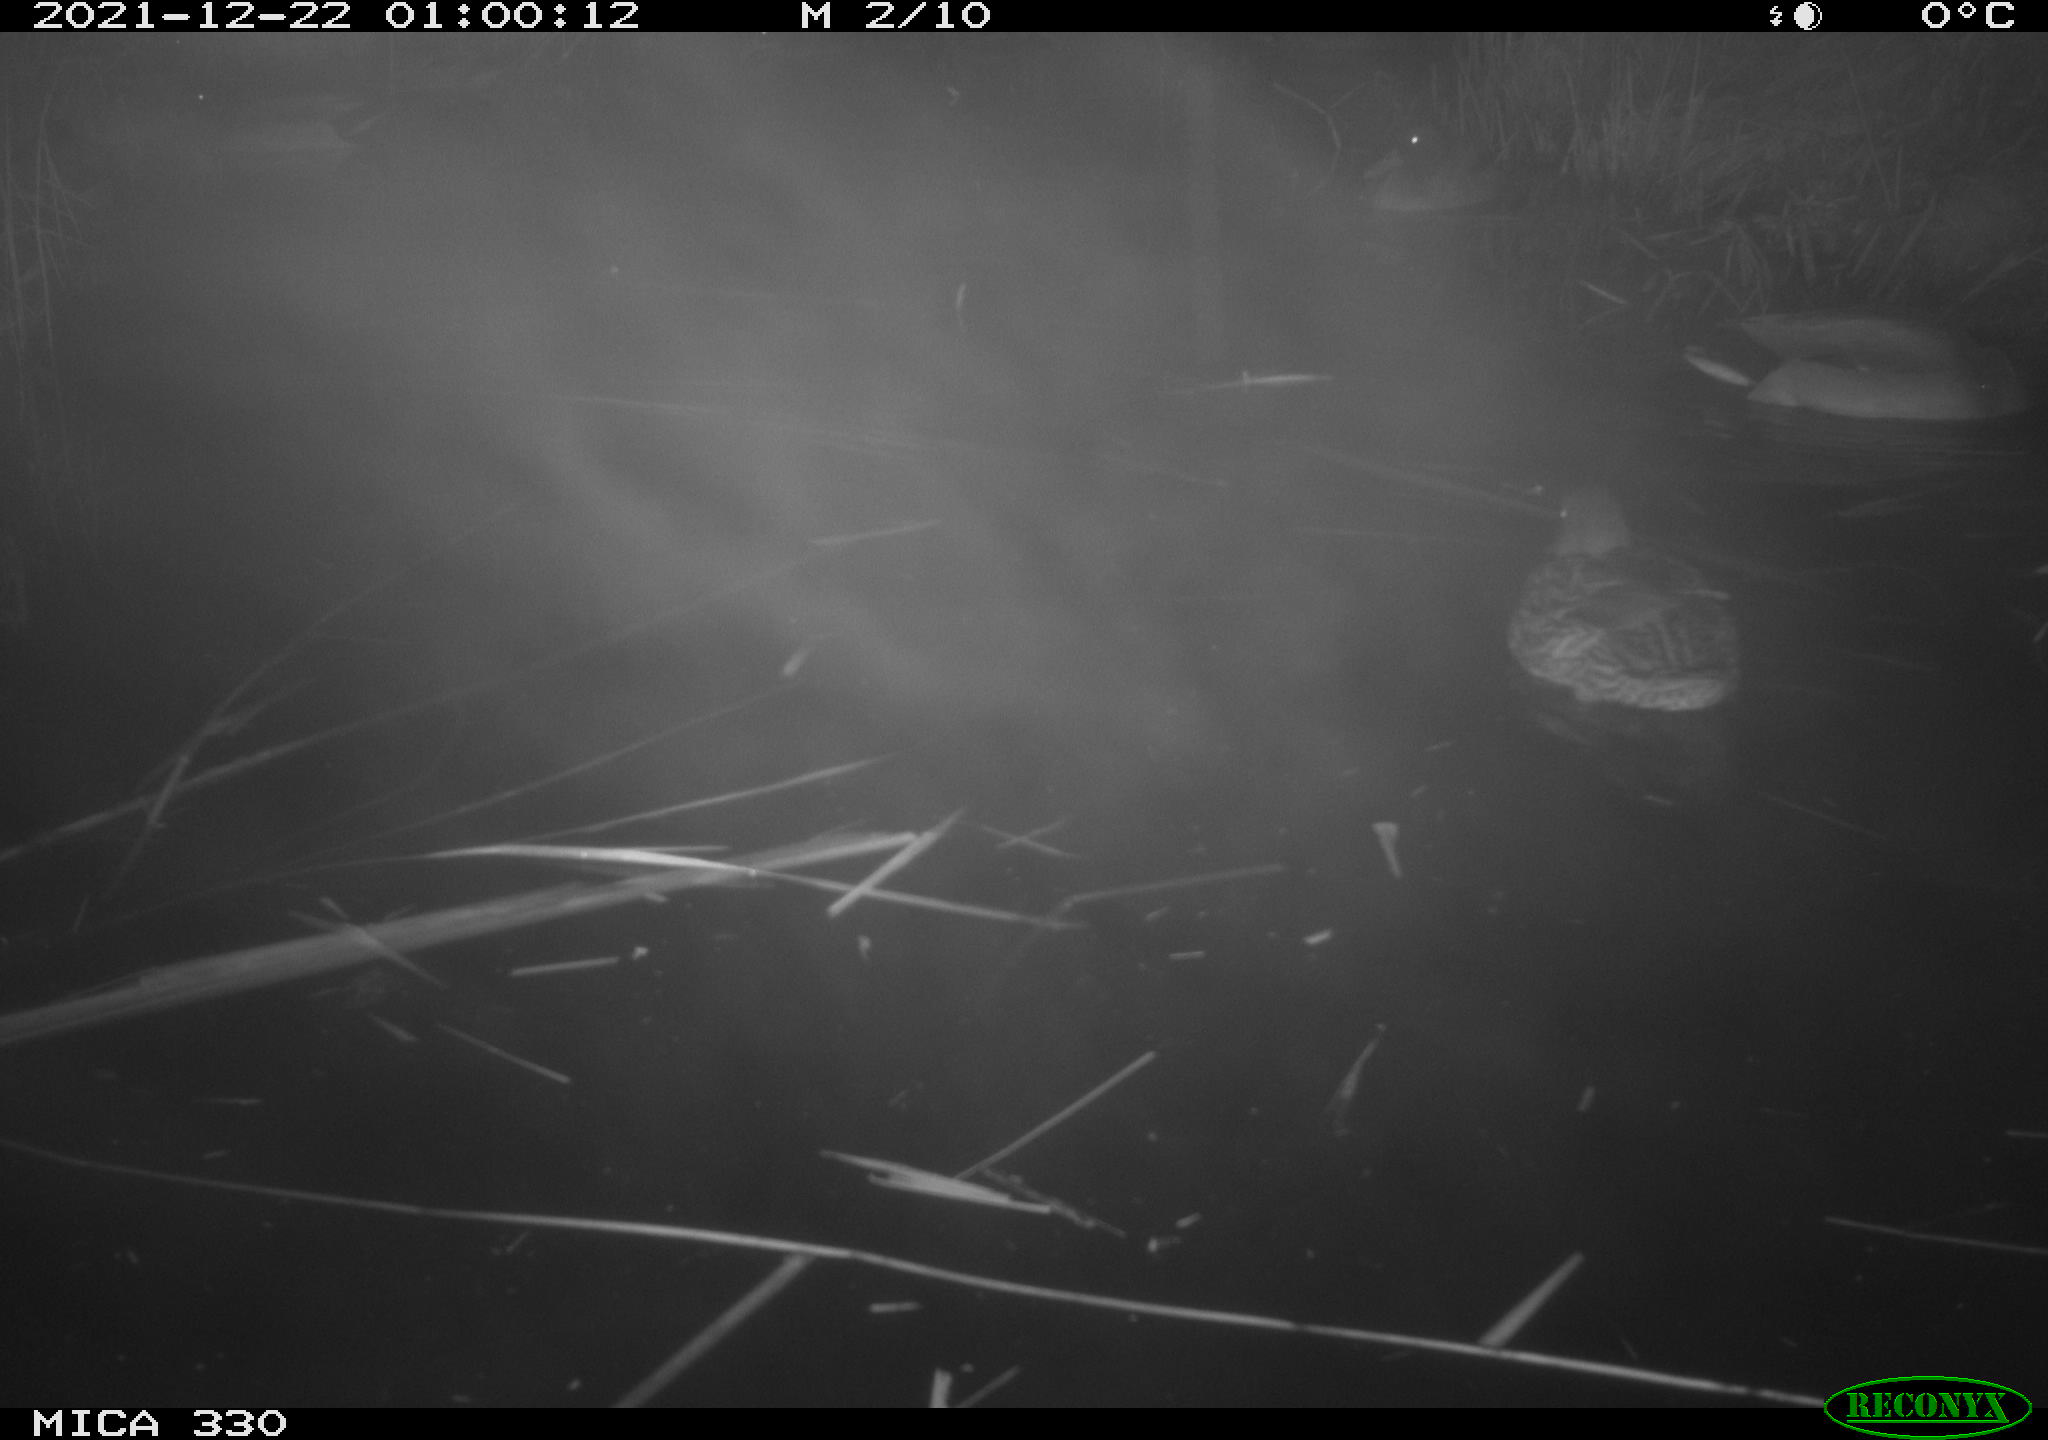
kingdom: Animalia
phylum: Chordata
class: Aves
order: Anseriformes
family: Anatidae
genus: Anas
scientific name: Anas platyrhynchos
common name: Mallard
